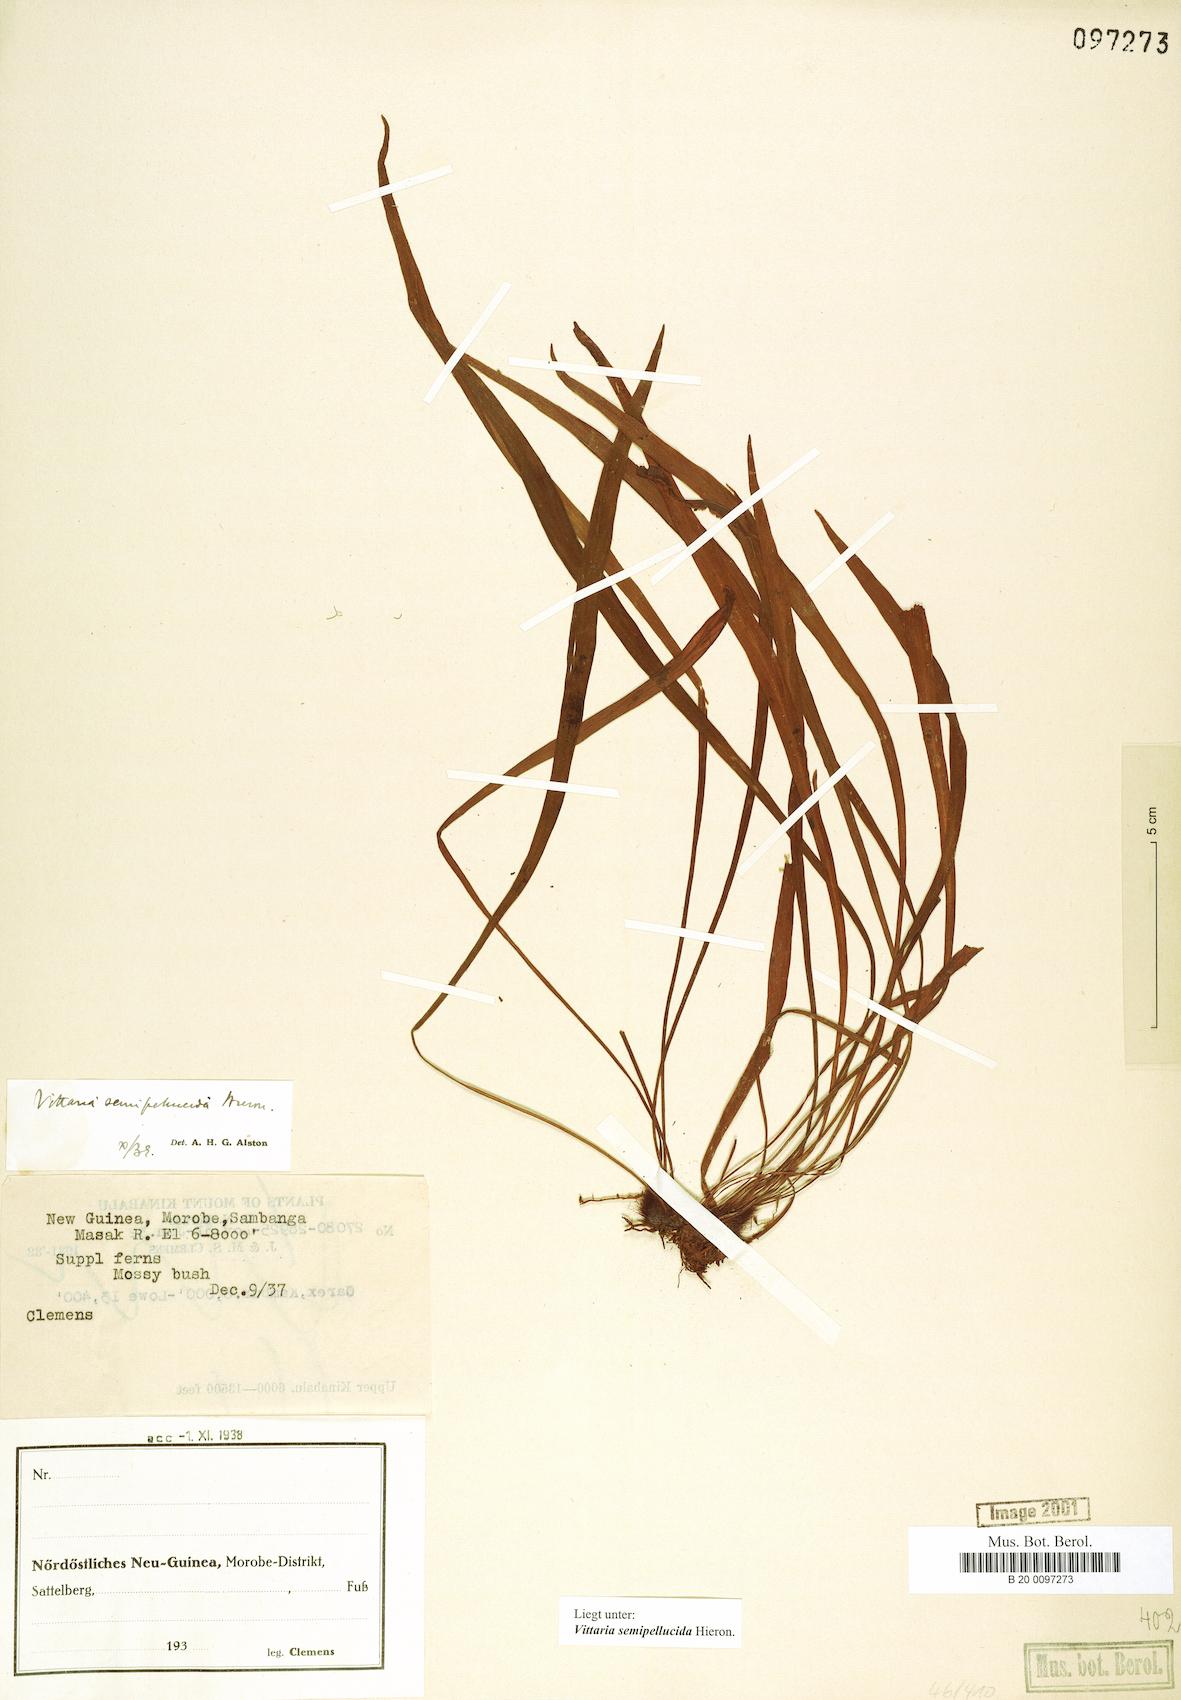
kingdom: Plantae
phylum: Tracheophyta
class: Polypodiopsida
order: Polypodiales
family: Pteridaceae
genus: Haplopteris
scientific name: Haplopteris elongata
